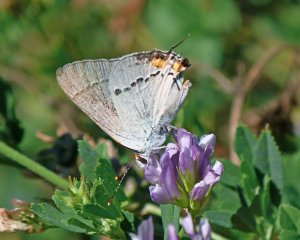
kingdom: Animalia
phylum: Arthropoda
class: Insecta
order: Lepidoptera
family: Lycaenidae
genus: Strymon
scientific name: Strymon melinus
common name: Gray Hairstreak
